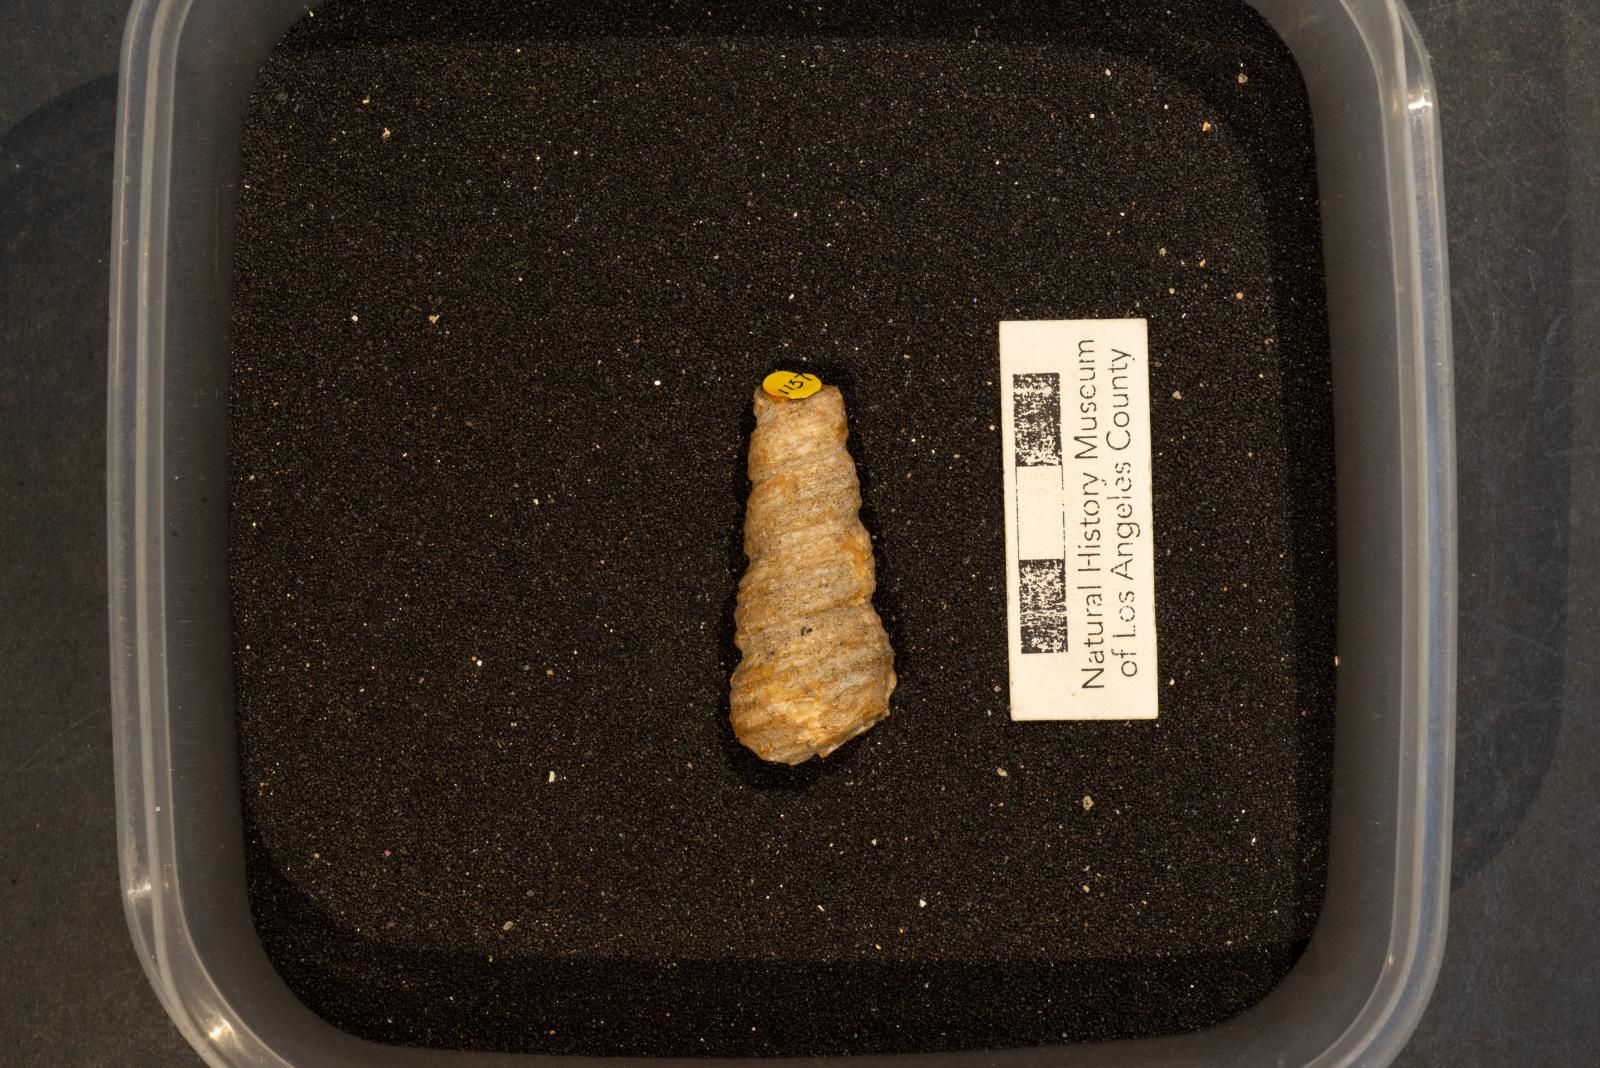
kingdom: Animalia
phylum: Mollusca
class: Gastropoda
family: Turritellidae
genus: Turritella
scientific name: Turritella chicoensis
